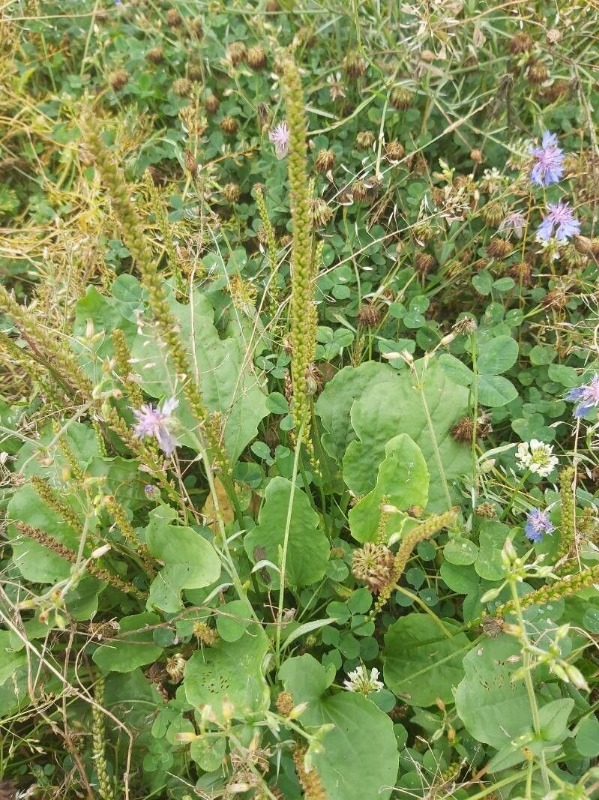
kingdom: Plantae
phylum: Tracheophyta
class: Magnoliopsida
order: Lamiales
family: Plantaginaceae
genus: Plantago
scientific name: Plantago major
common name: Glat vejbred
